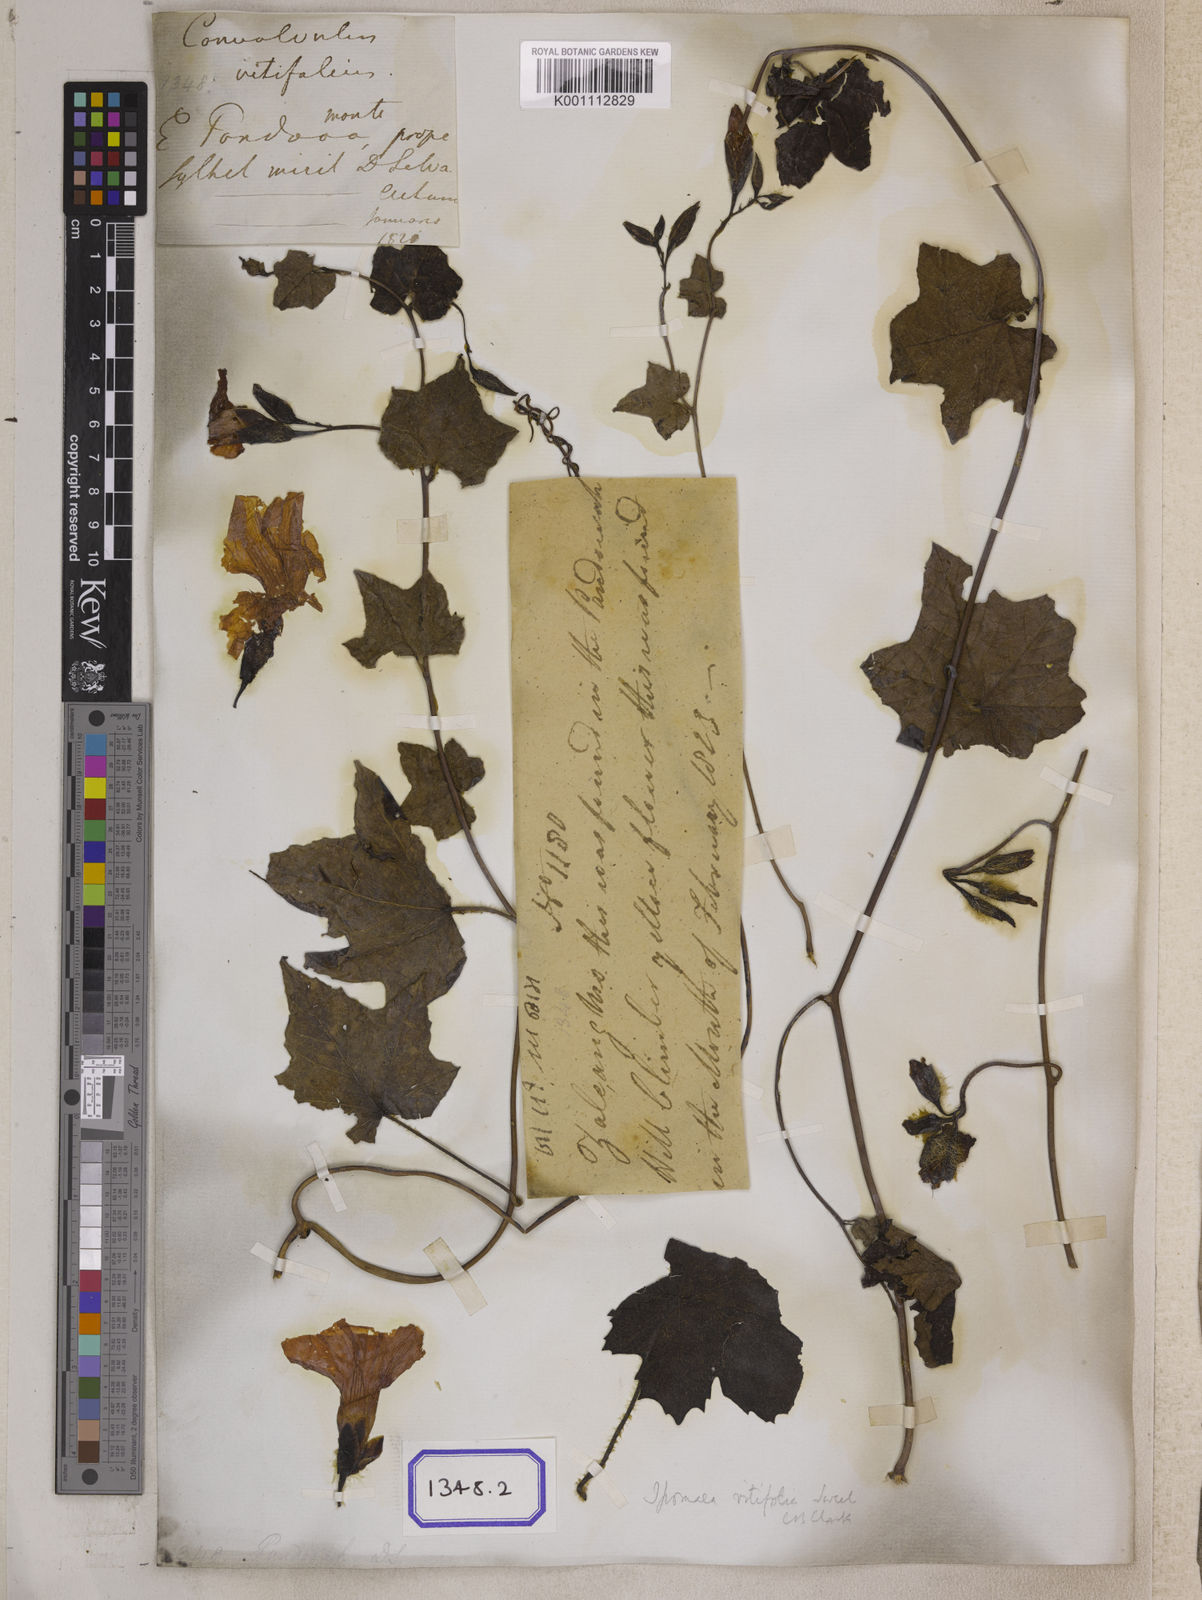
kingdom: Plantae
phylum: Tracheophyta
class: Magnoliopsida
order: Solanales
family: Convolvulaceae
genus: Convolvulus
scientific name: Convolvulus
